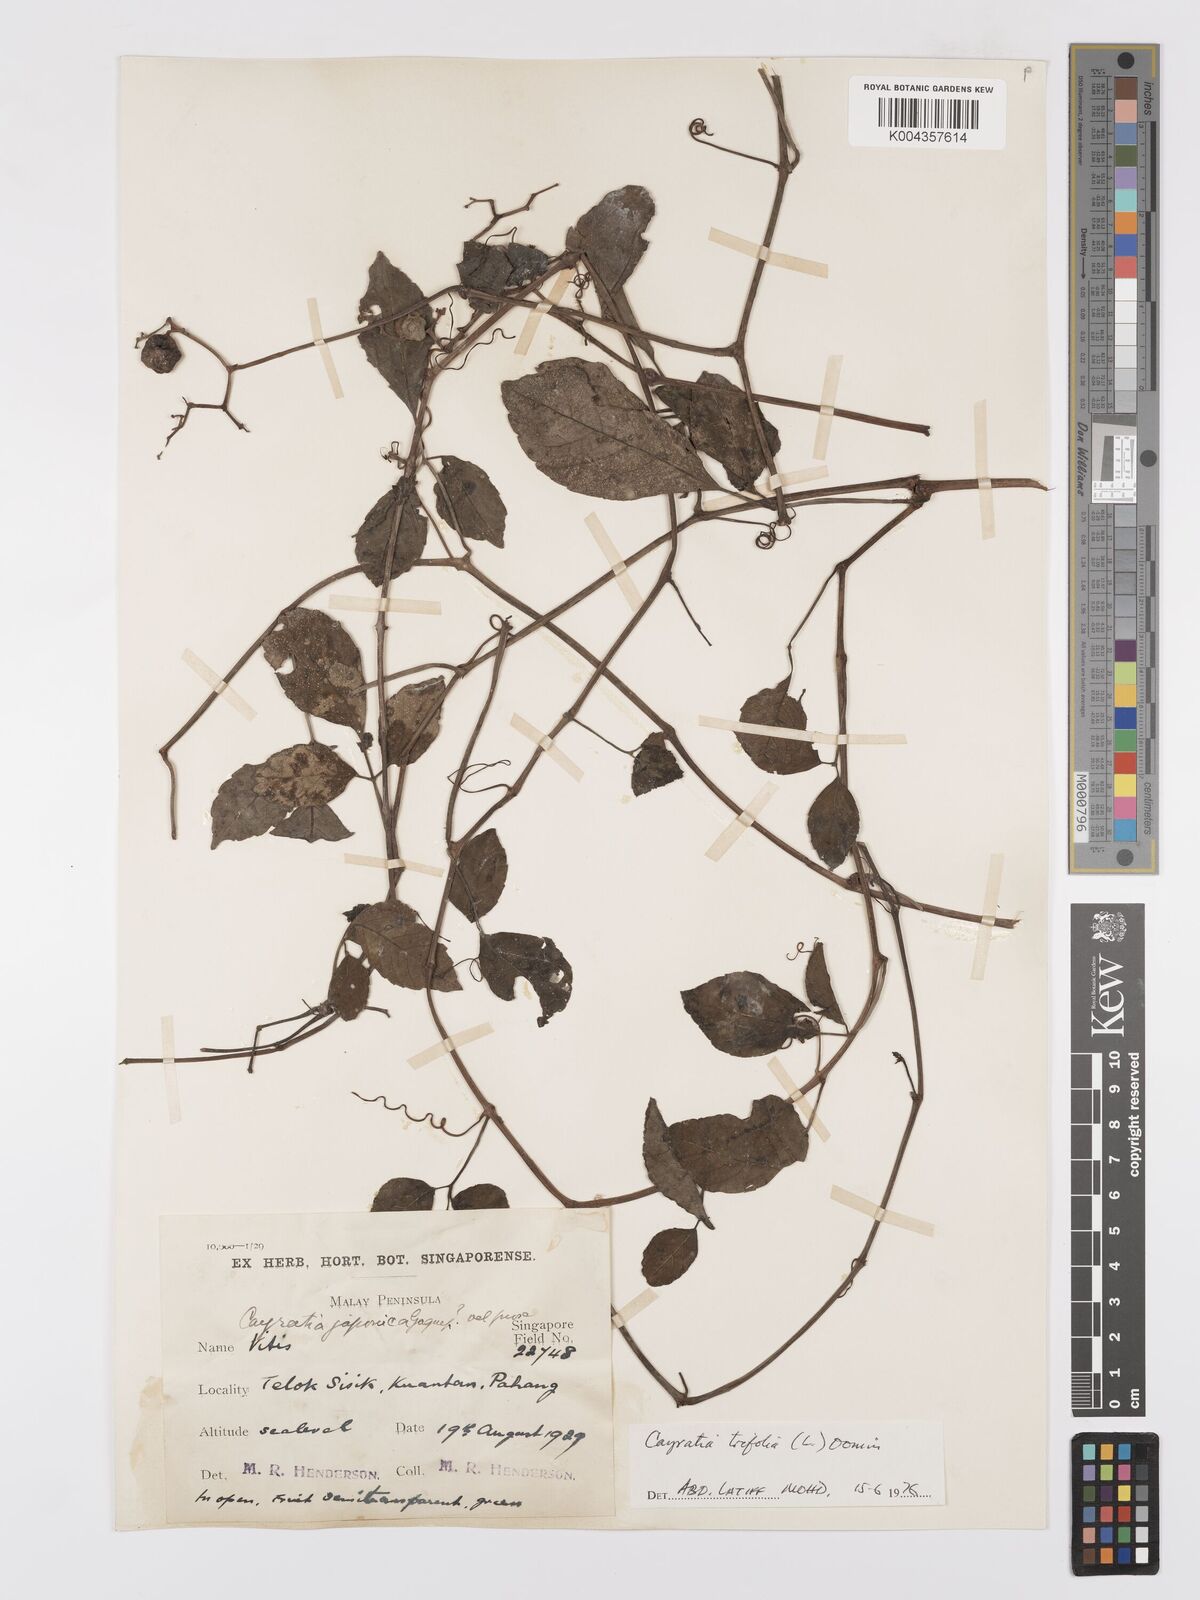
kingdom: Plantae
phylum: Tracheophyta
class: Magnoliopsida
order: Vitales
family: Vitaceae
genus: Causonis
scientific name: Causonis trifolia
